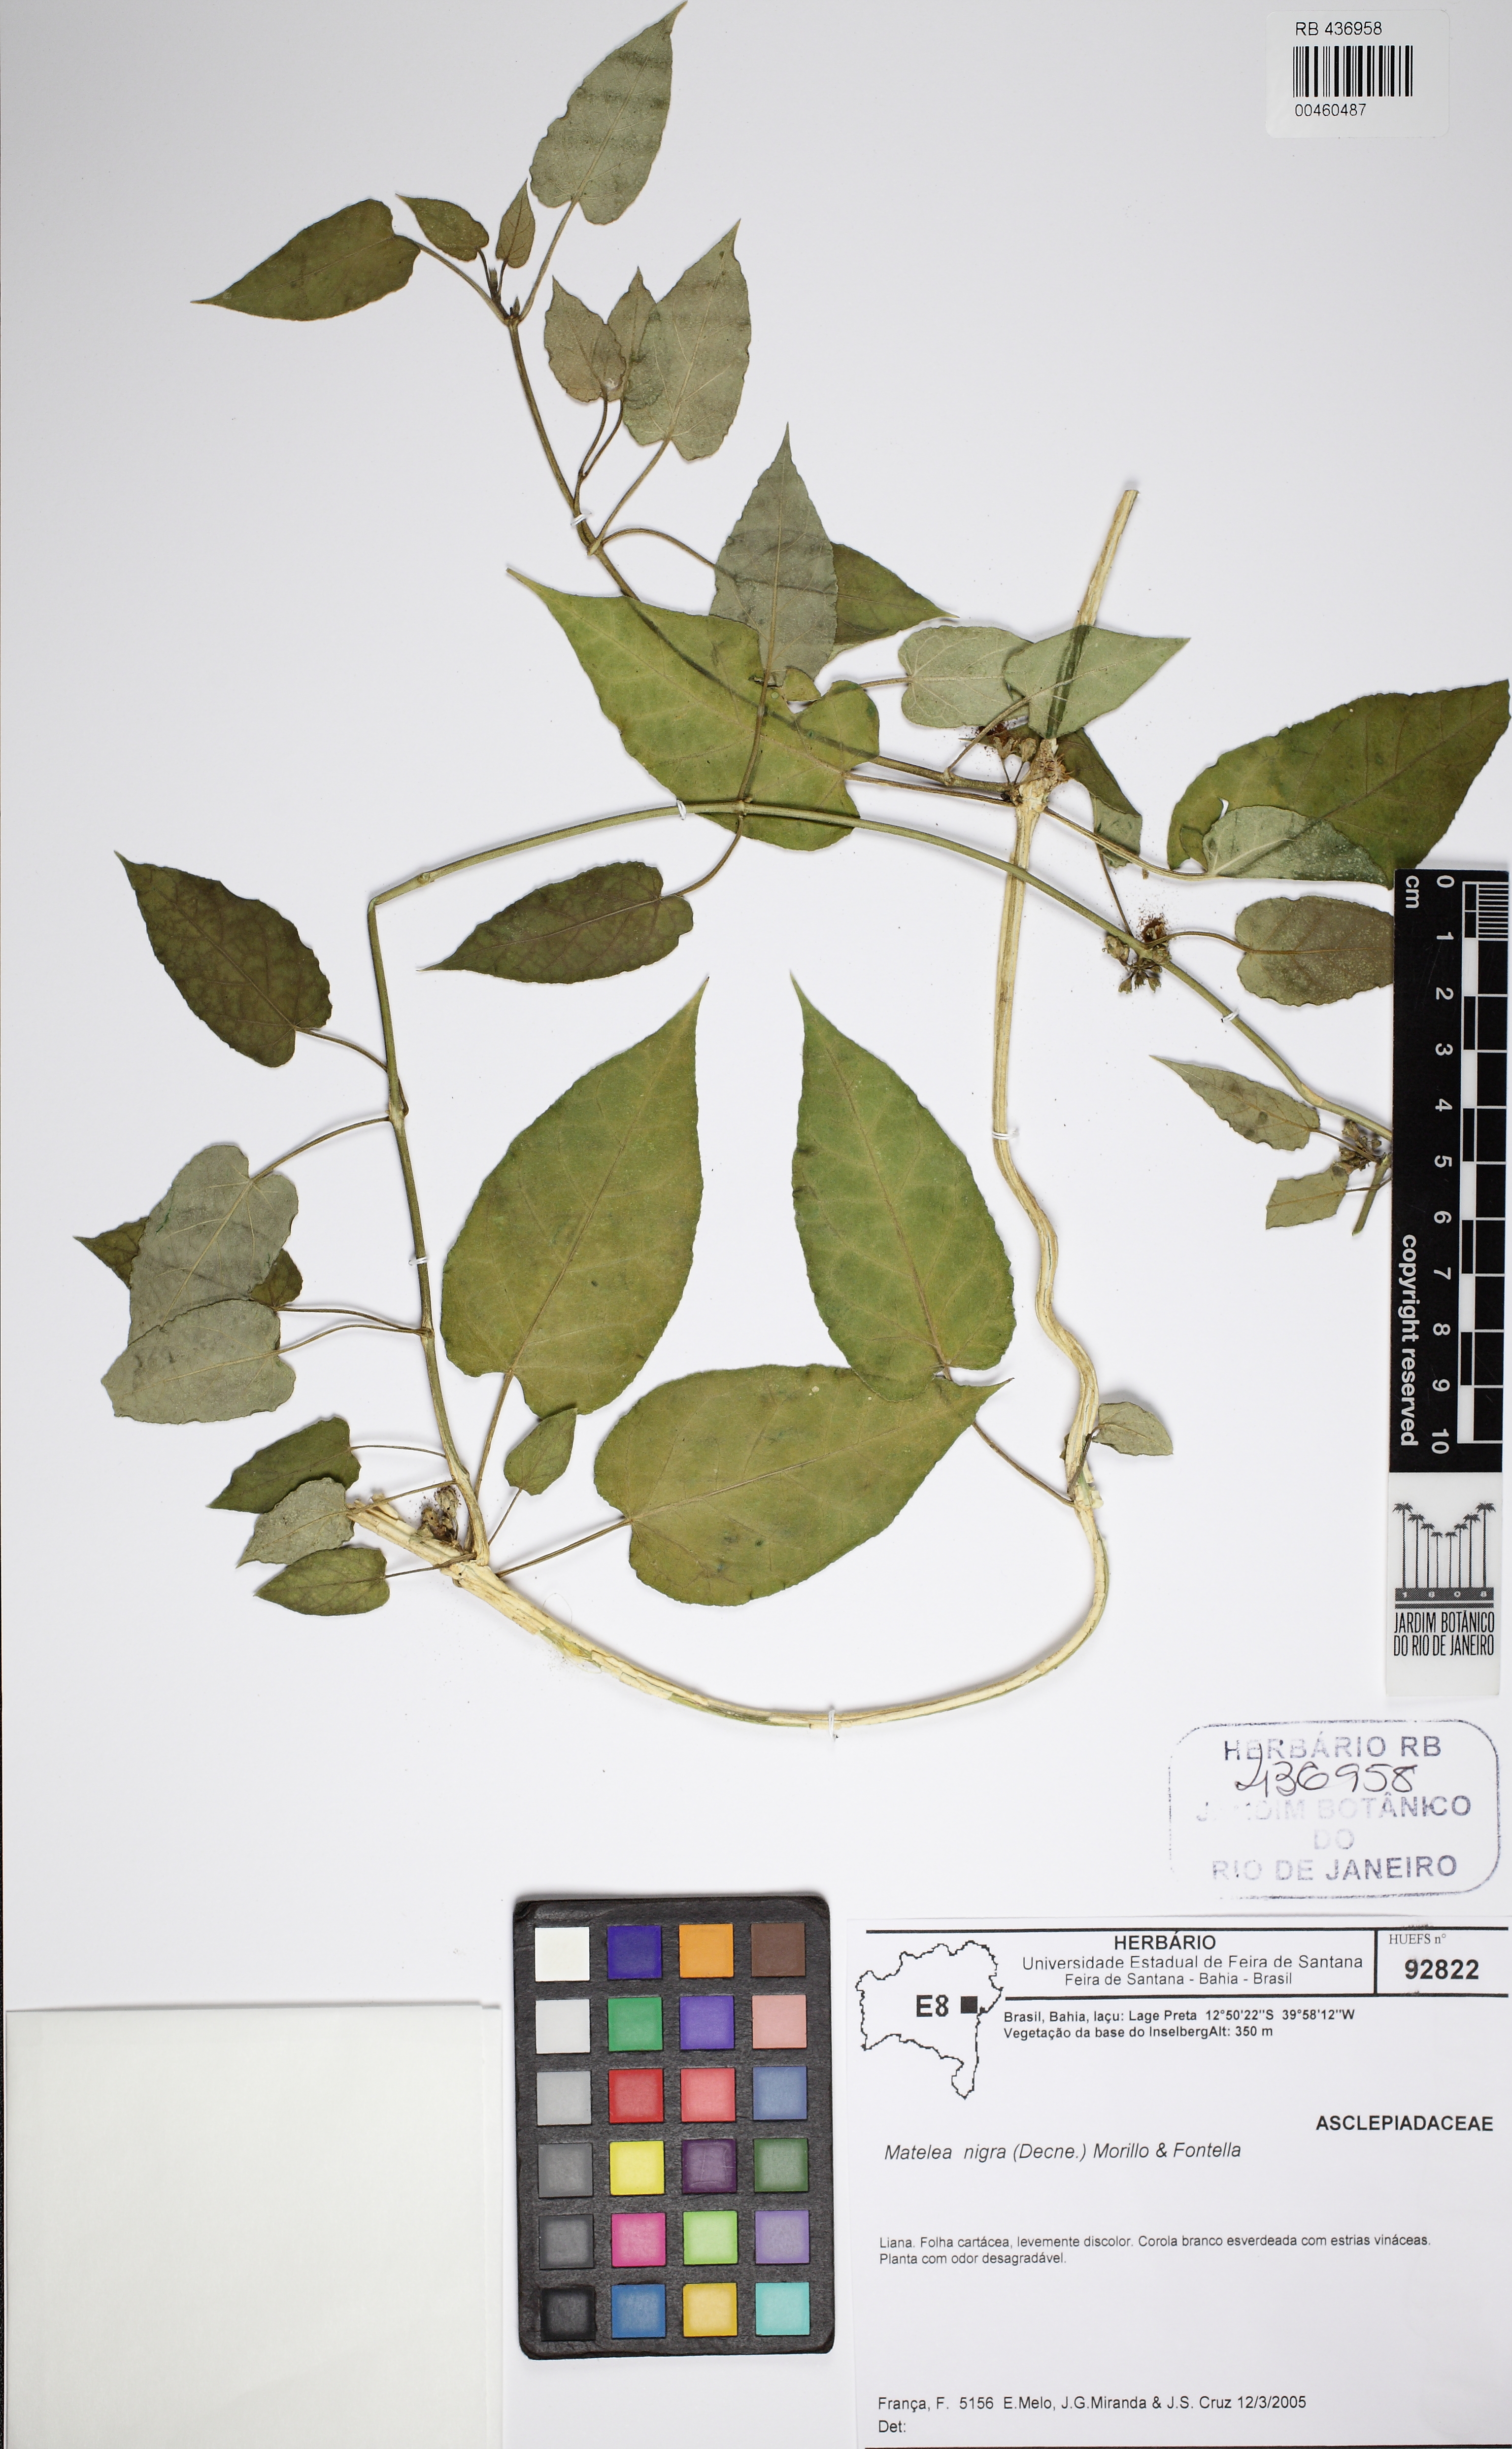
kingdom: Plantae
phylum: Tracheophyta
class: Magnoliopsida
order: Gentianales
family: Apocynaceae
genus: Ibatia
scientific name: Ibatia nigra
